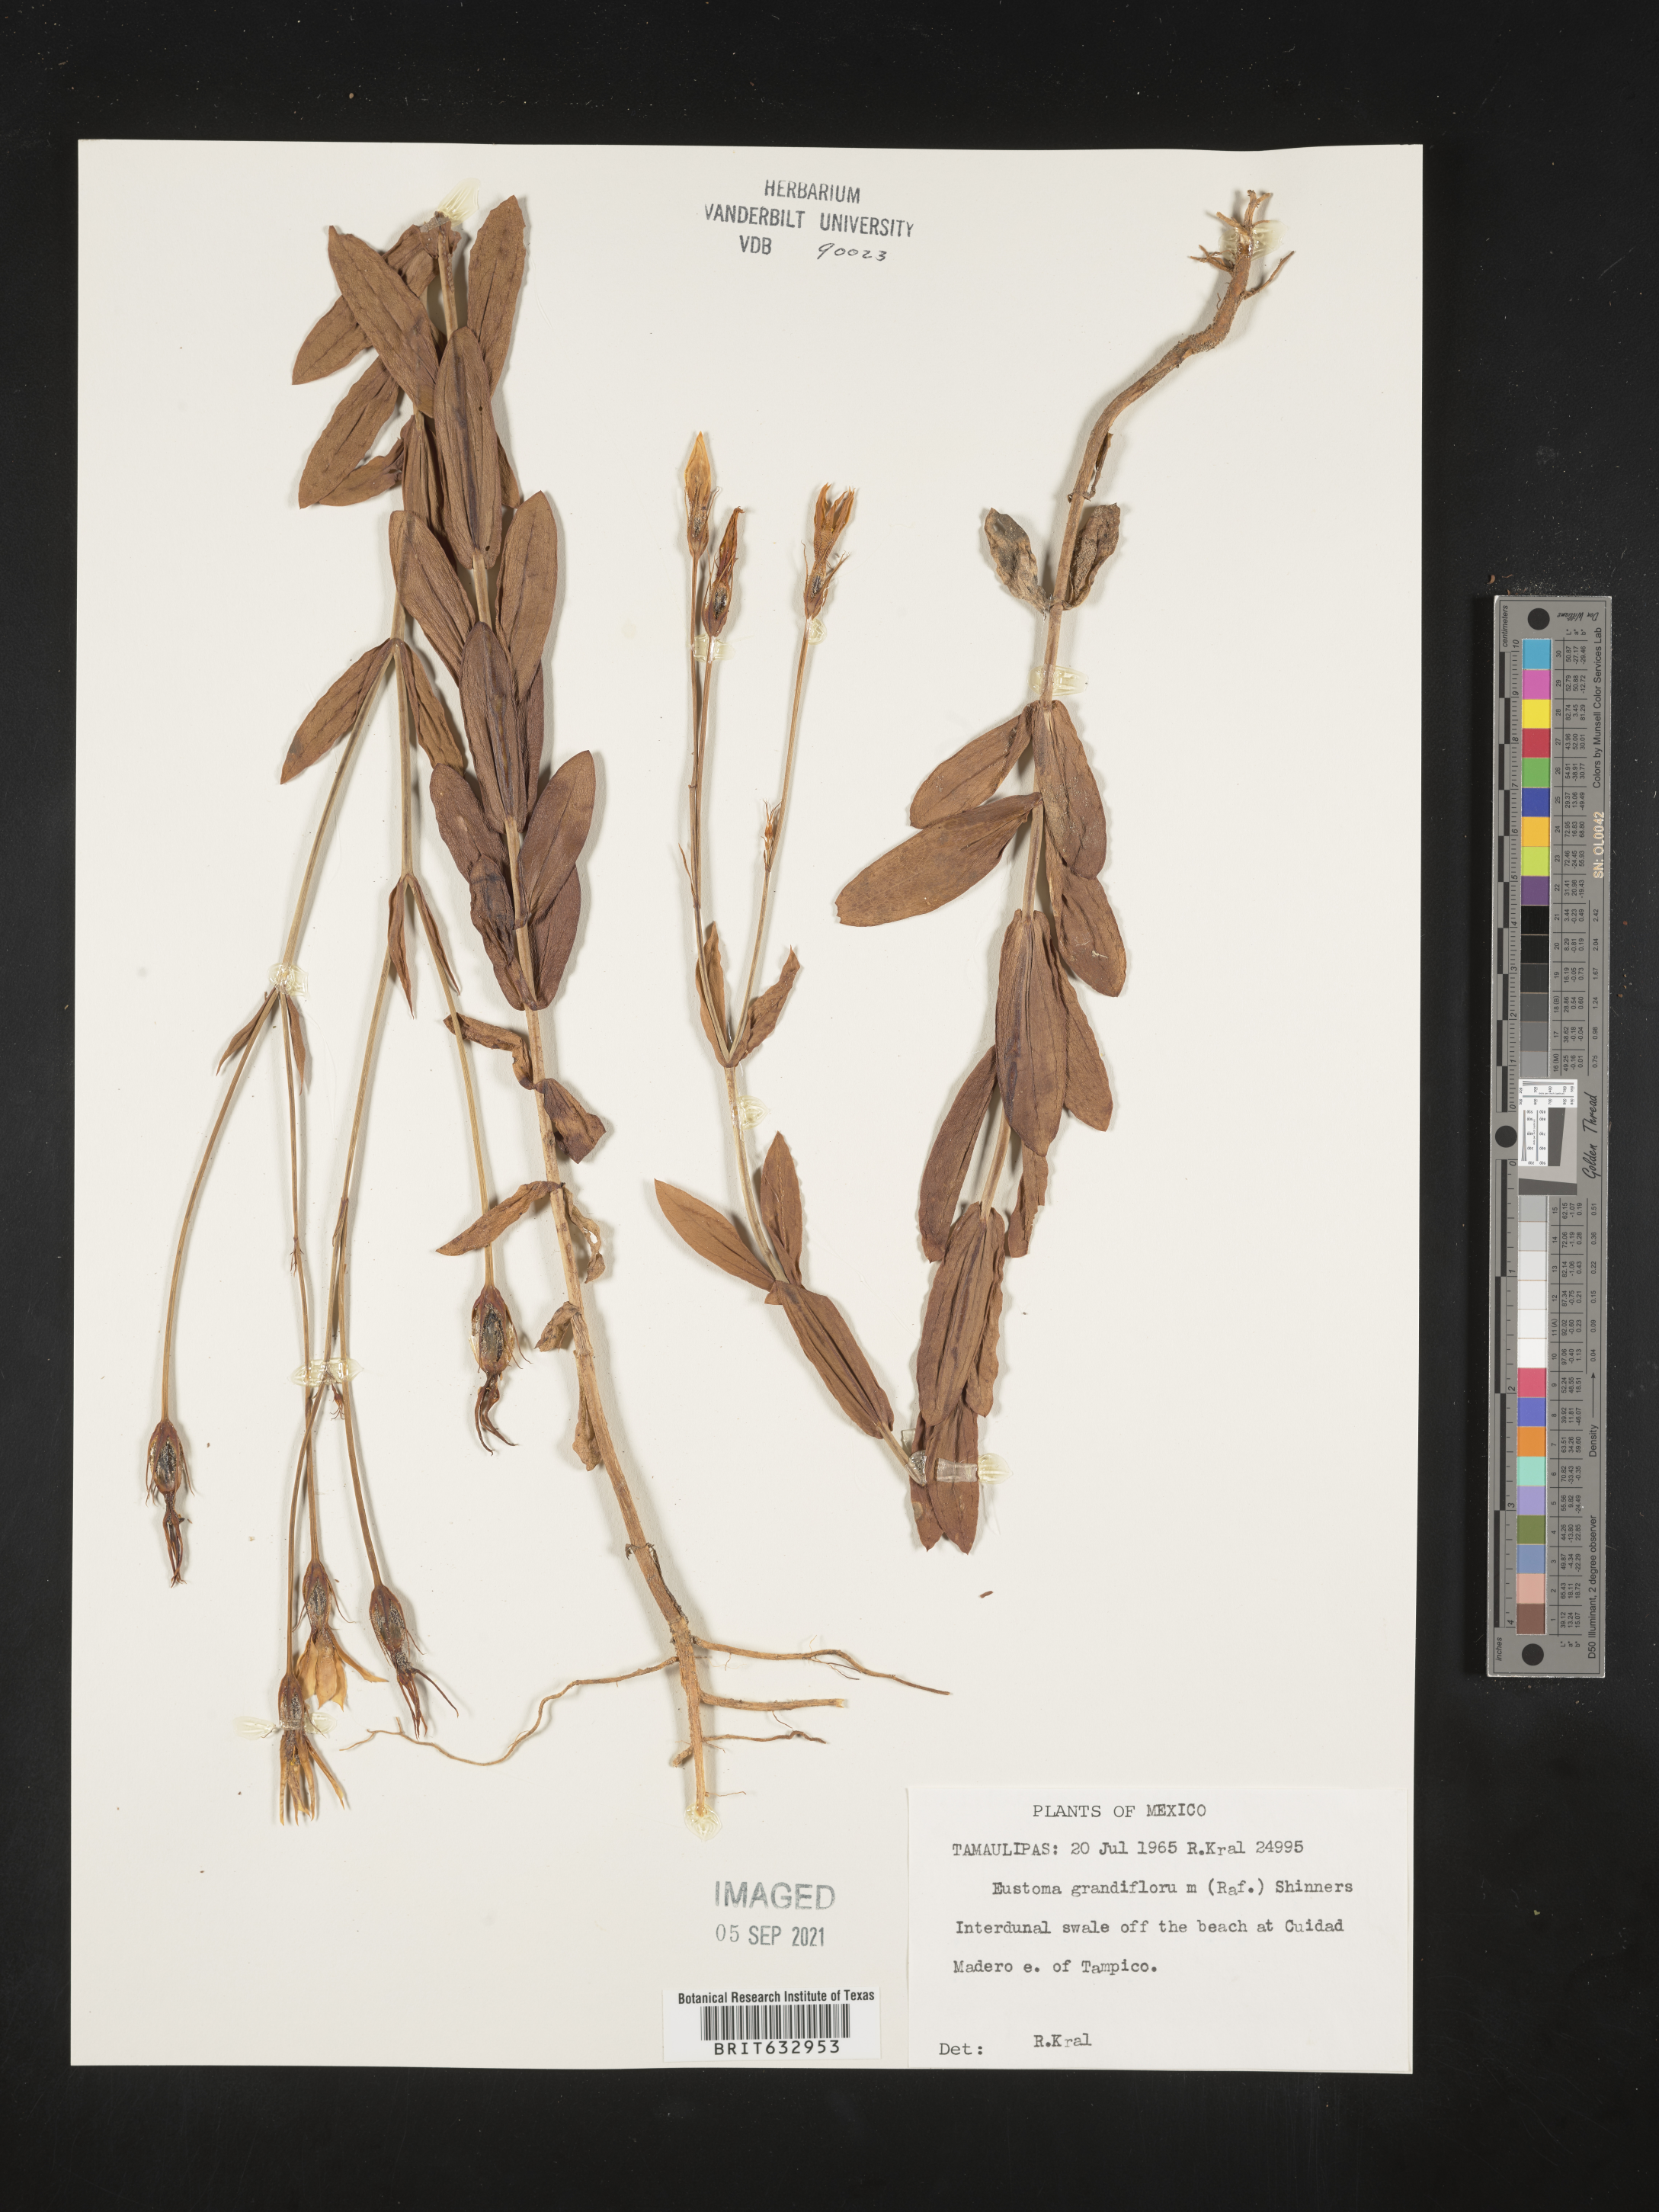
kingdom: Plantae
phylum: Tracheophyta
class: Magnoliopsida
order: Gentianales
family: Gentianaceae
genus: Eustoma
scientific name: Eustoma
